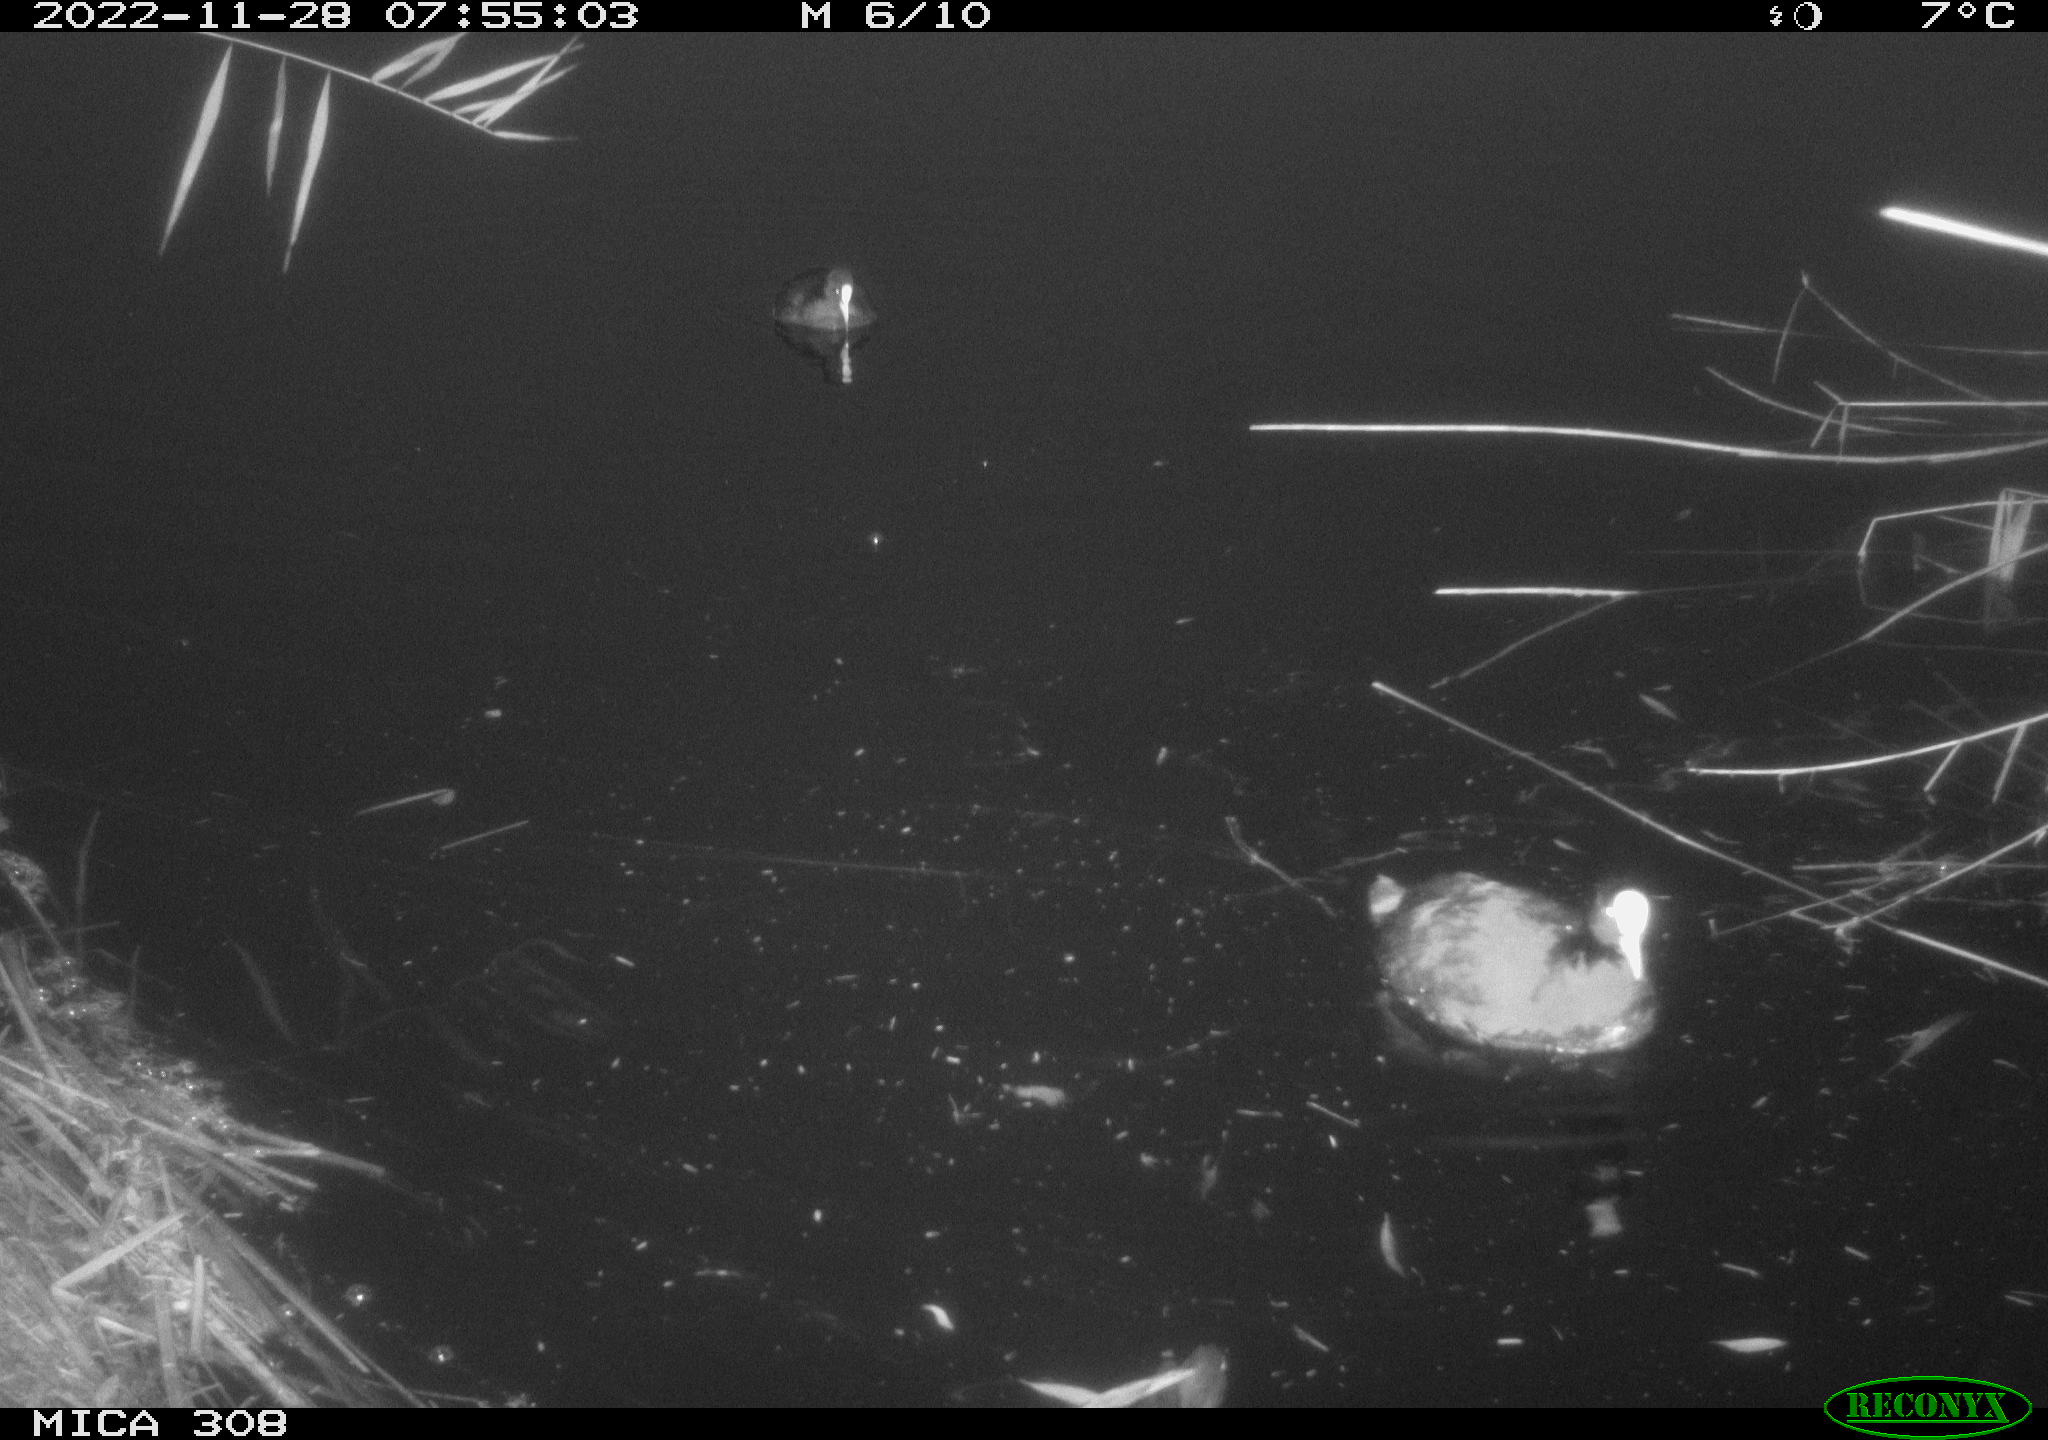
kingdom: Animalia
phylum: Chordata
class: Aves
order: Gruiformes
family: Rallidae
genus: Gallinula
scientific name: Gallinula chloropus
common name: Common moorhen
